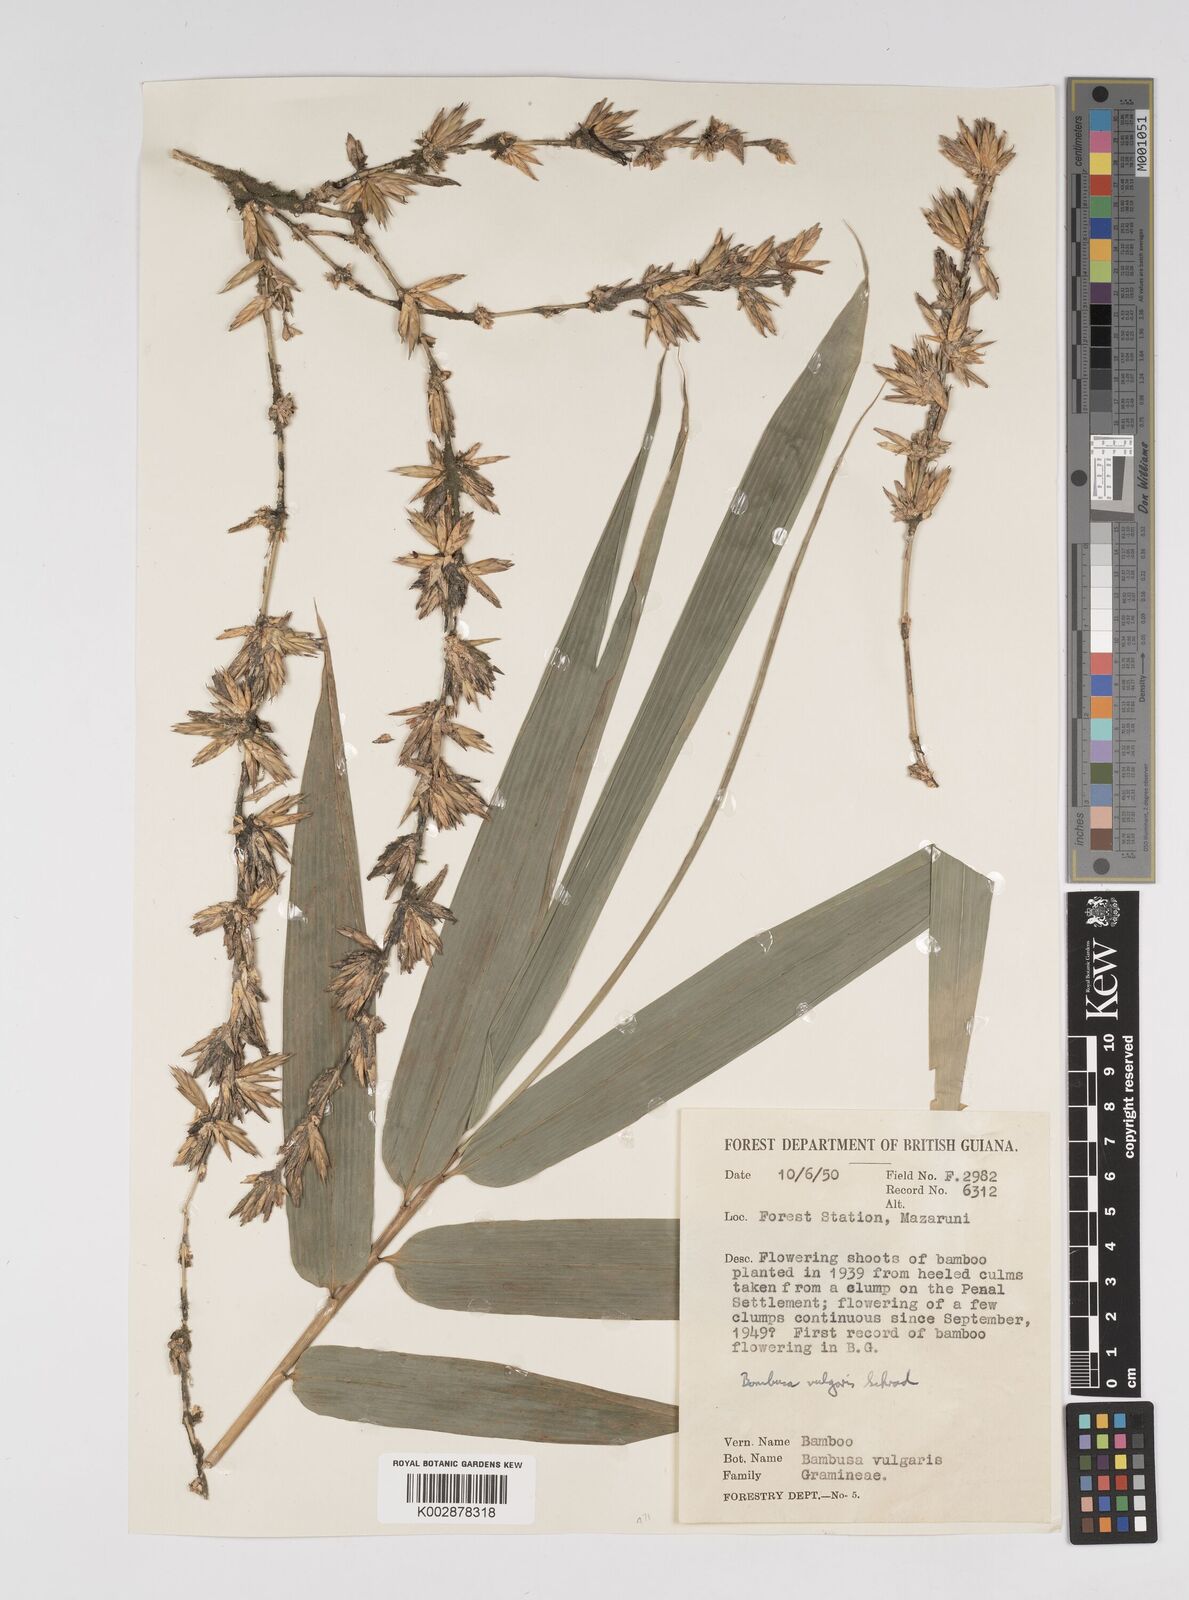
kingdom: Plantae
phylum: Tracheophyta
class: Liliopsida
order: Poales
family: Poaceae
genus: Bambusa
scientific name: Bambusa vulgaris
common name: Common bamboo
